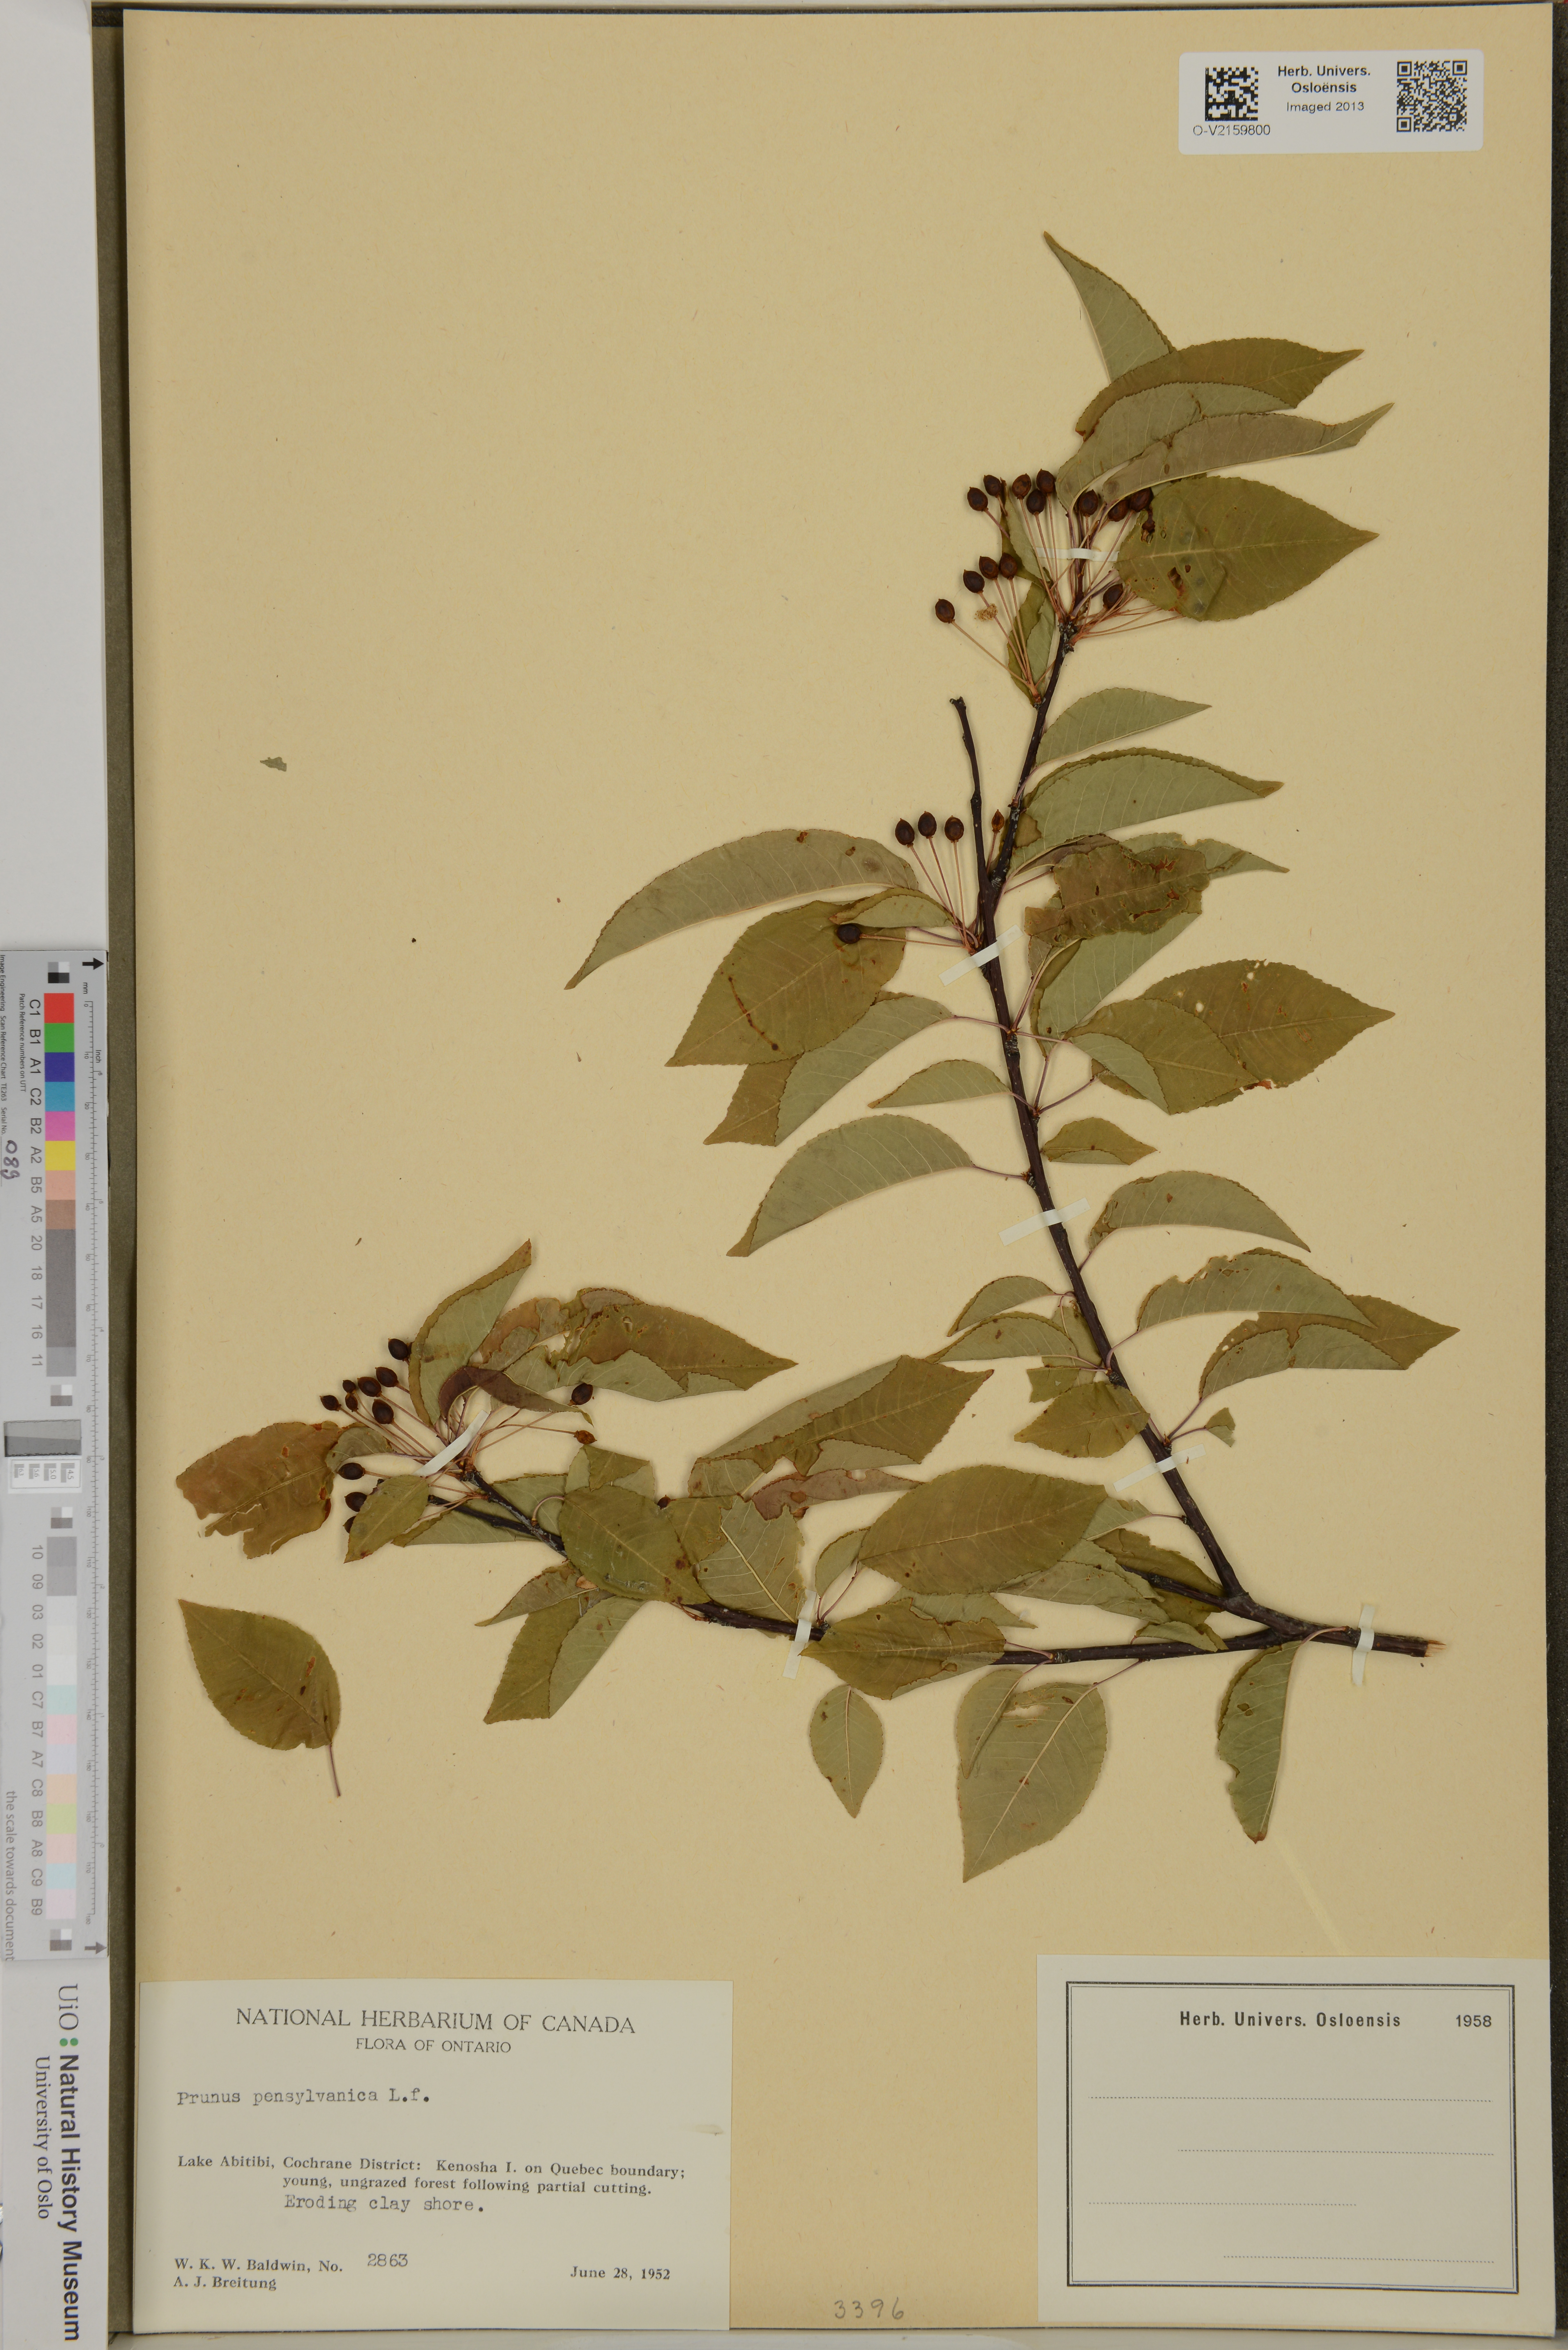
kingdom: Plantae
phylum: Tracheophyta
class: Magnoliopsida
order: Rosales
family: Rosaceae
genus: Prunus
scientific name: Prunus pensylvanica
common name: Pin cherry
